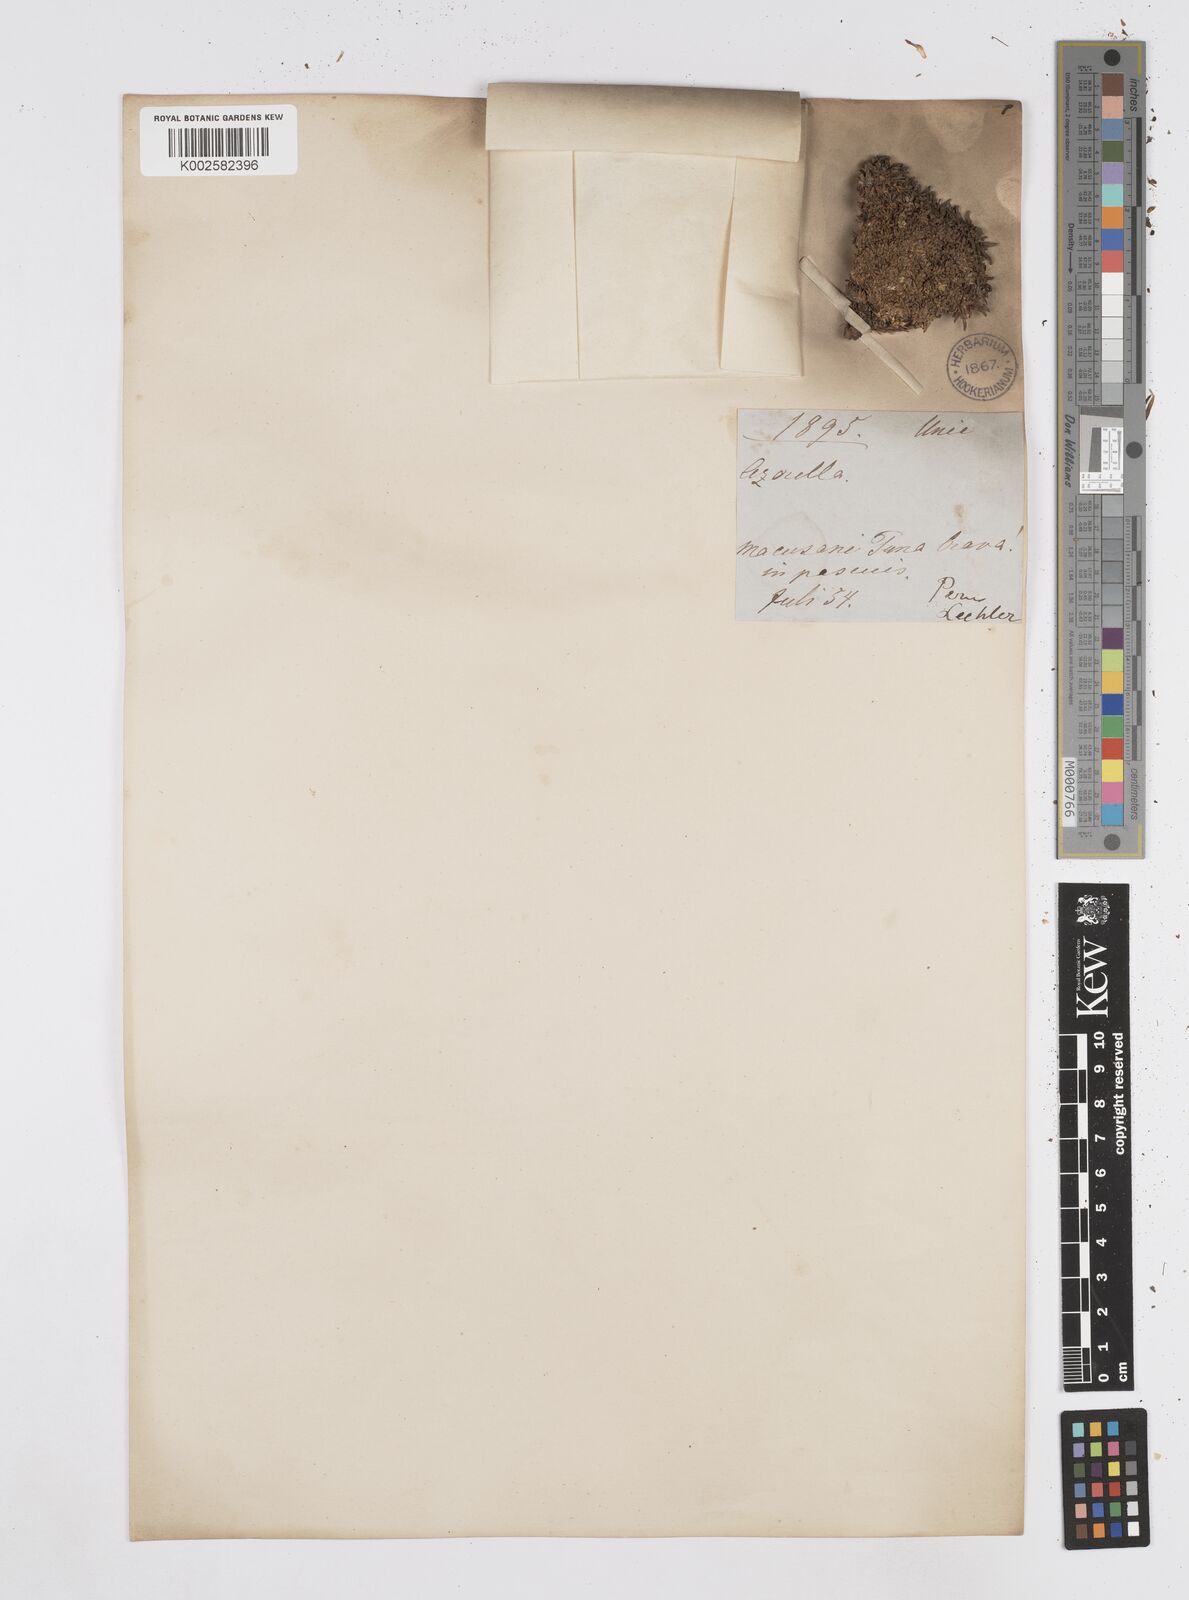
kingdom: Plantae
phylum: Tracheophyta
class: Magnoliopsida
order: Apiales
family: Apiaceae
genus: Azorella
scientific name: Azorella diapensioides
